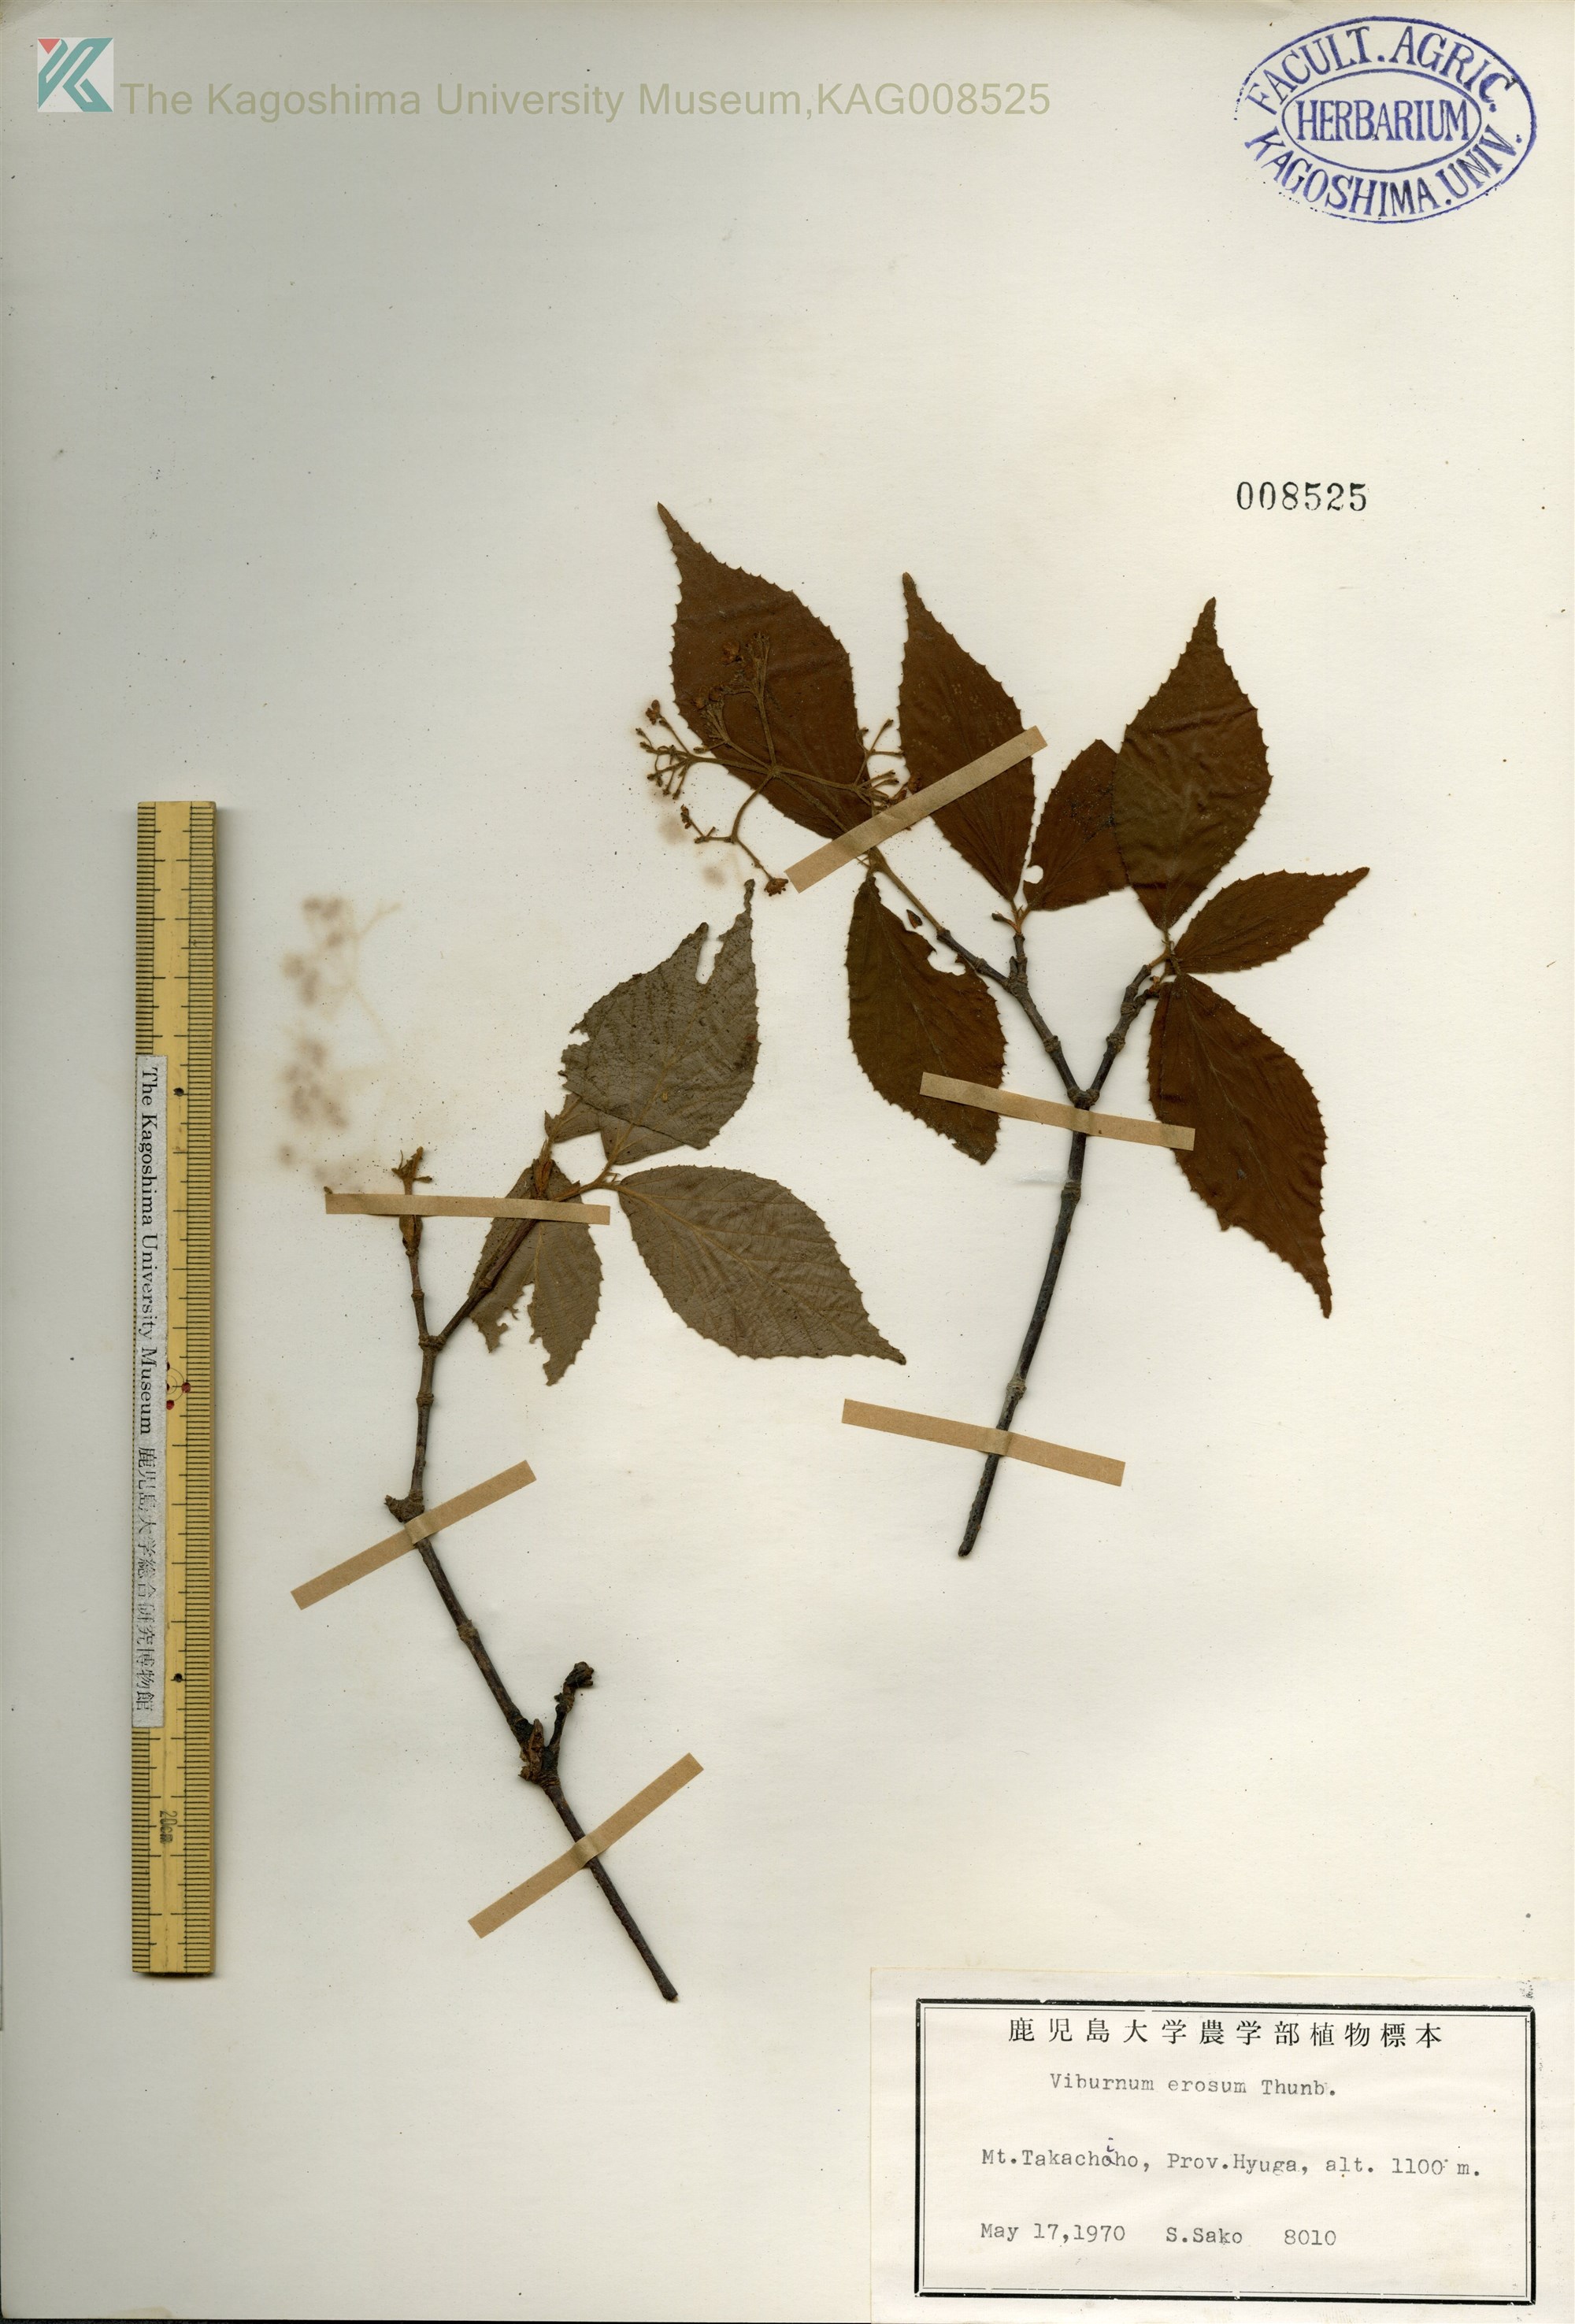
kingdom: Plantae
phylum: Tracheophyta
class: Magnoliopsida
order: Dipsacales
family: Viburnaceae
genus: Viburnum
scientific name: Viburnum erosum
